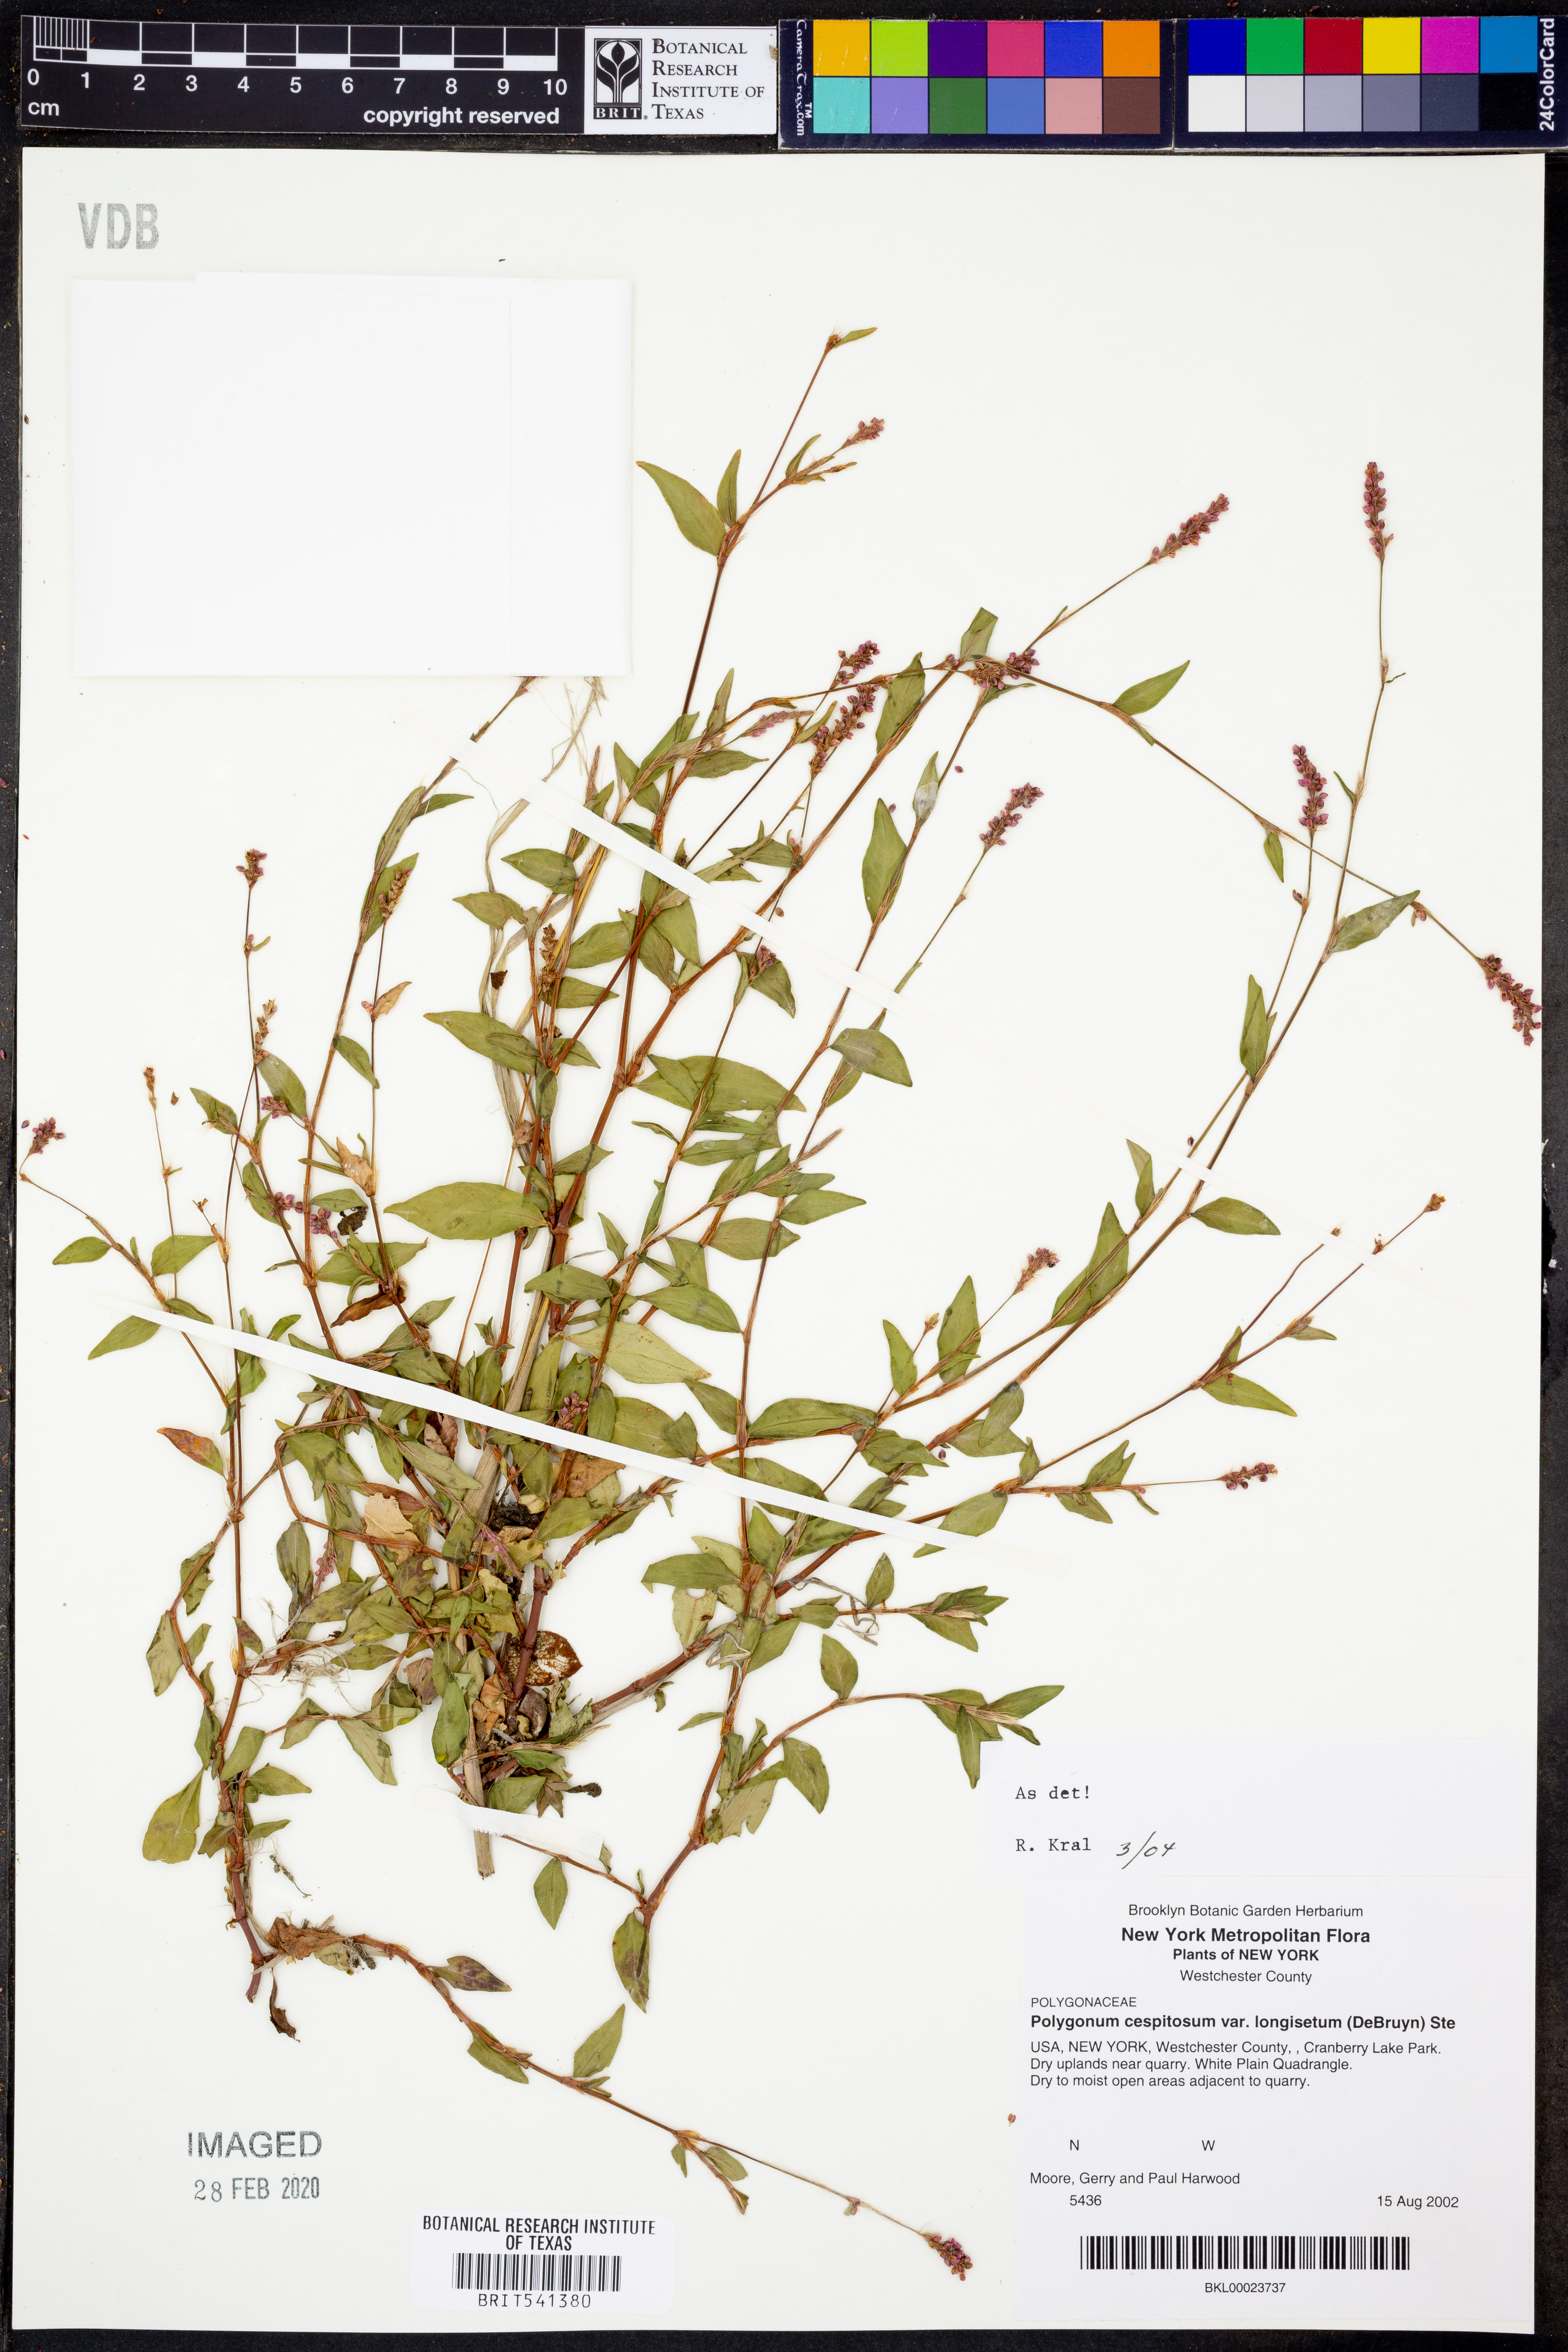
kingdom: Plantae
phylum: Tracheophyta
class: Magnoliopsida
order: Caryophyllales
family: Polygonaceae
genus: Persicaria
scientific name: Persicaria longiseta
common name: Bristly lady's-thumb
